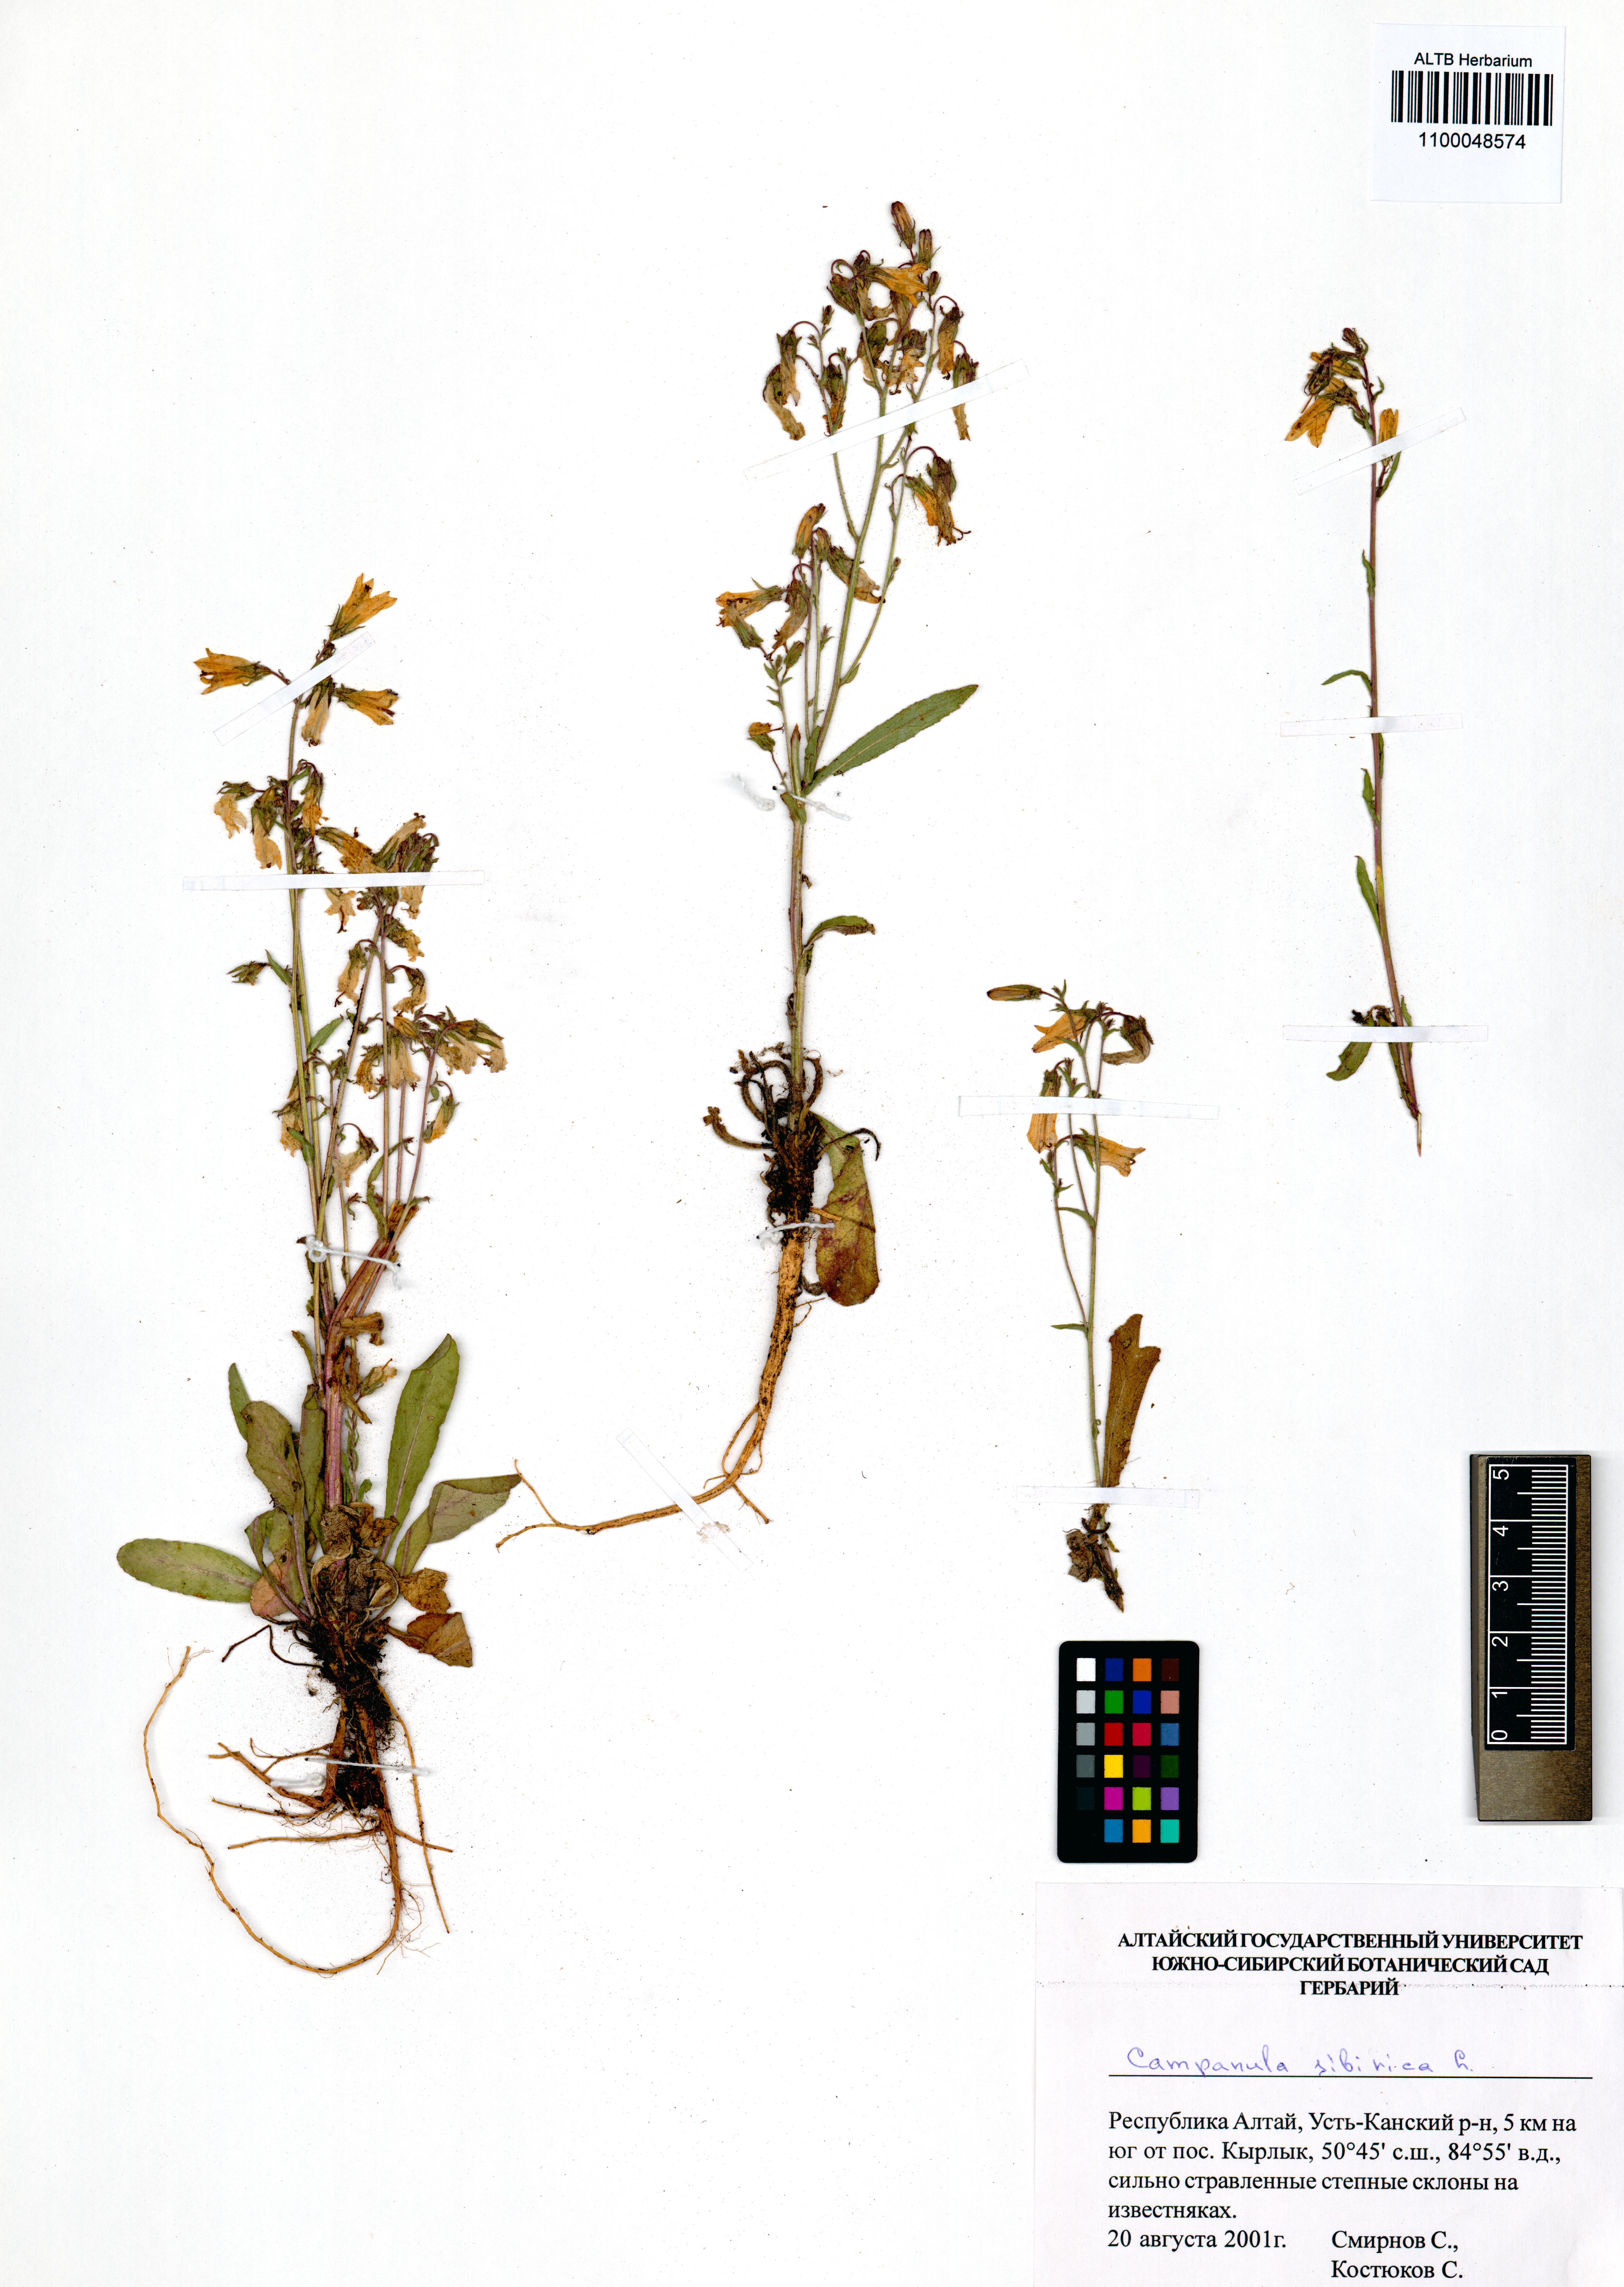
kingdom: Plantae
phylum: Tracheophyta
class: Magnoliopsida
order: Asterales
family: Campanulaceae
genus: Campanula
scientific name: Campanula sibirica
